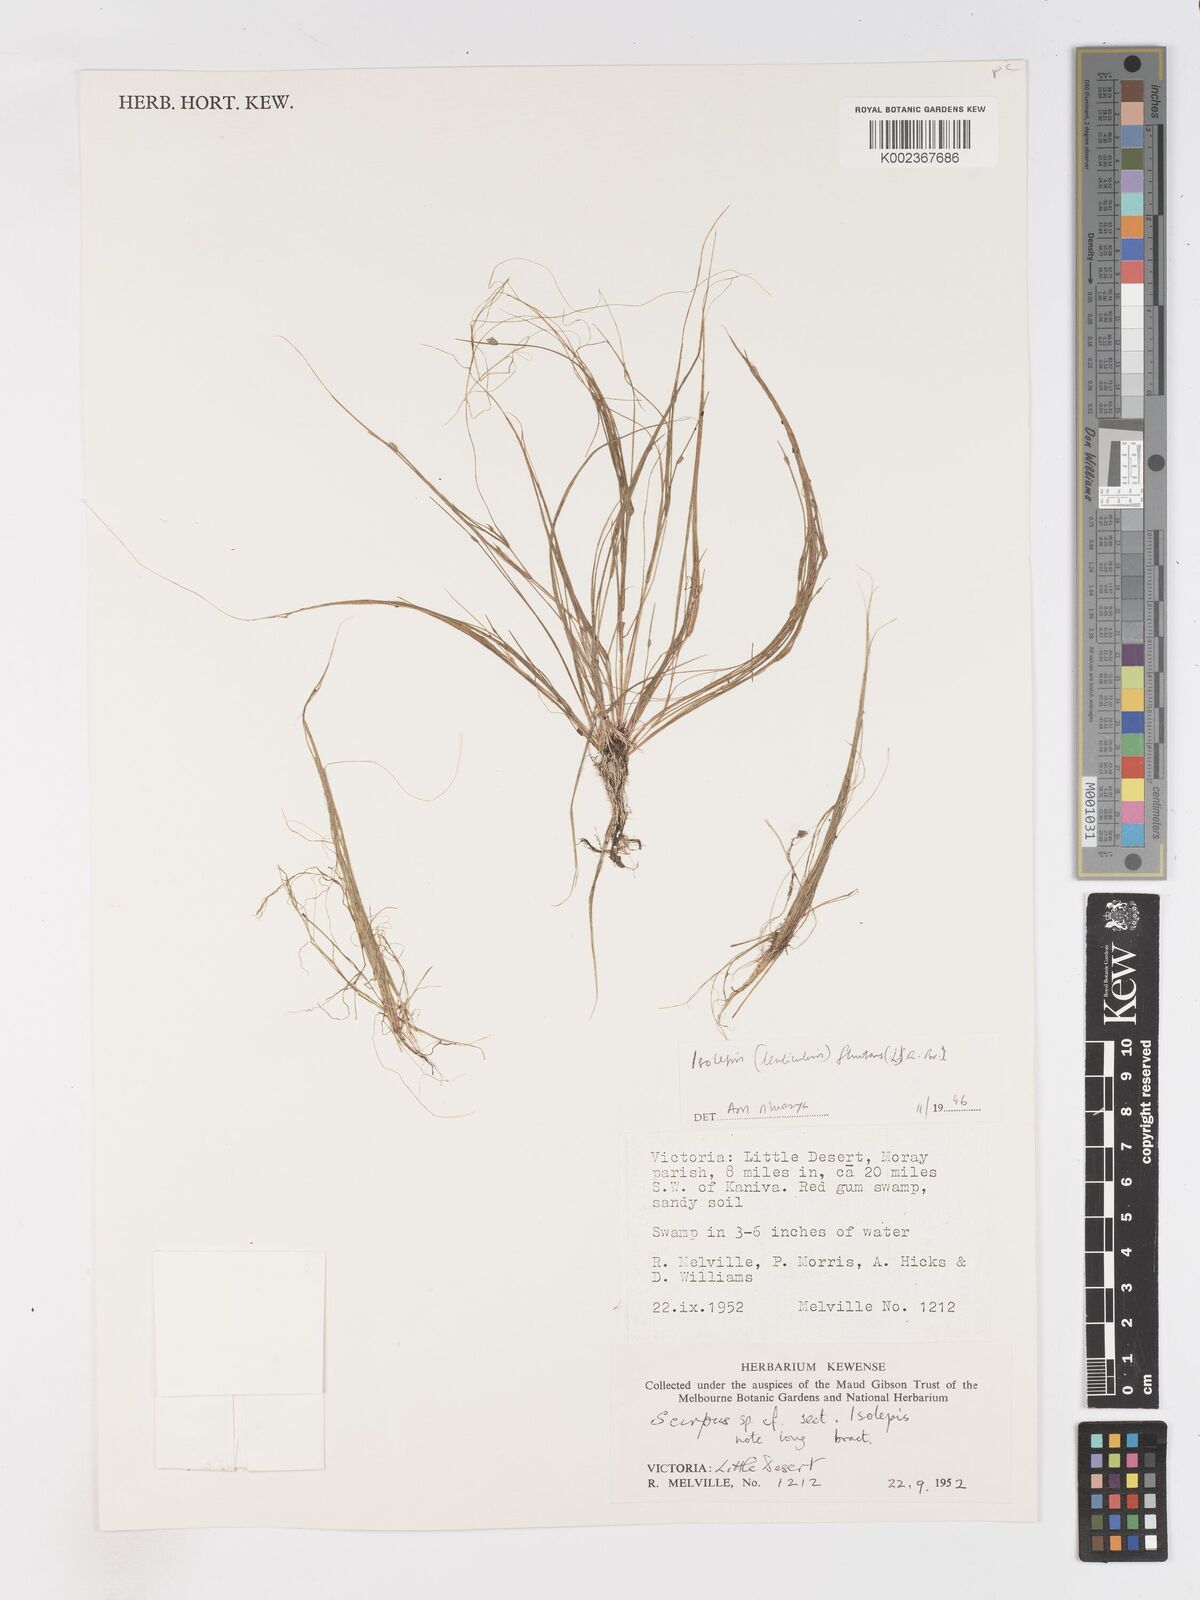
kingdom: Plantae
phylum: Tracheophyta
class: Liliopsida
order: Poales
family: Cyperaceae
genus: Isolepis
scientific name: Isolepis fluitans
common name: Floating club-rush
